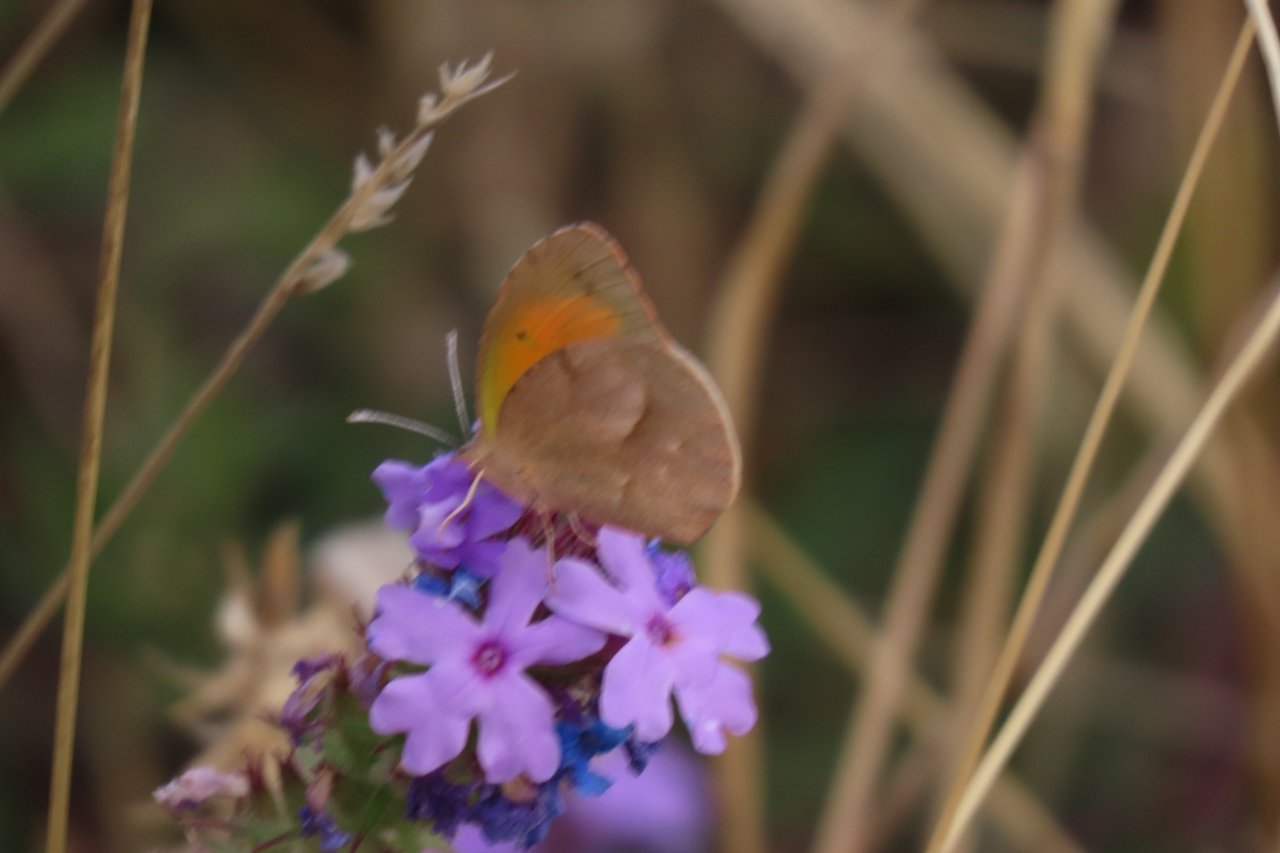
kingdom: Animalia
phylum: Arthropoda
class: Insecta
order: Lepidoptera
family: Pieridae
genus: Abaeis
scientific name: Abaeis nicippe
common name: Sleepy Orange
